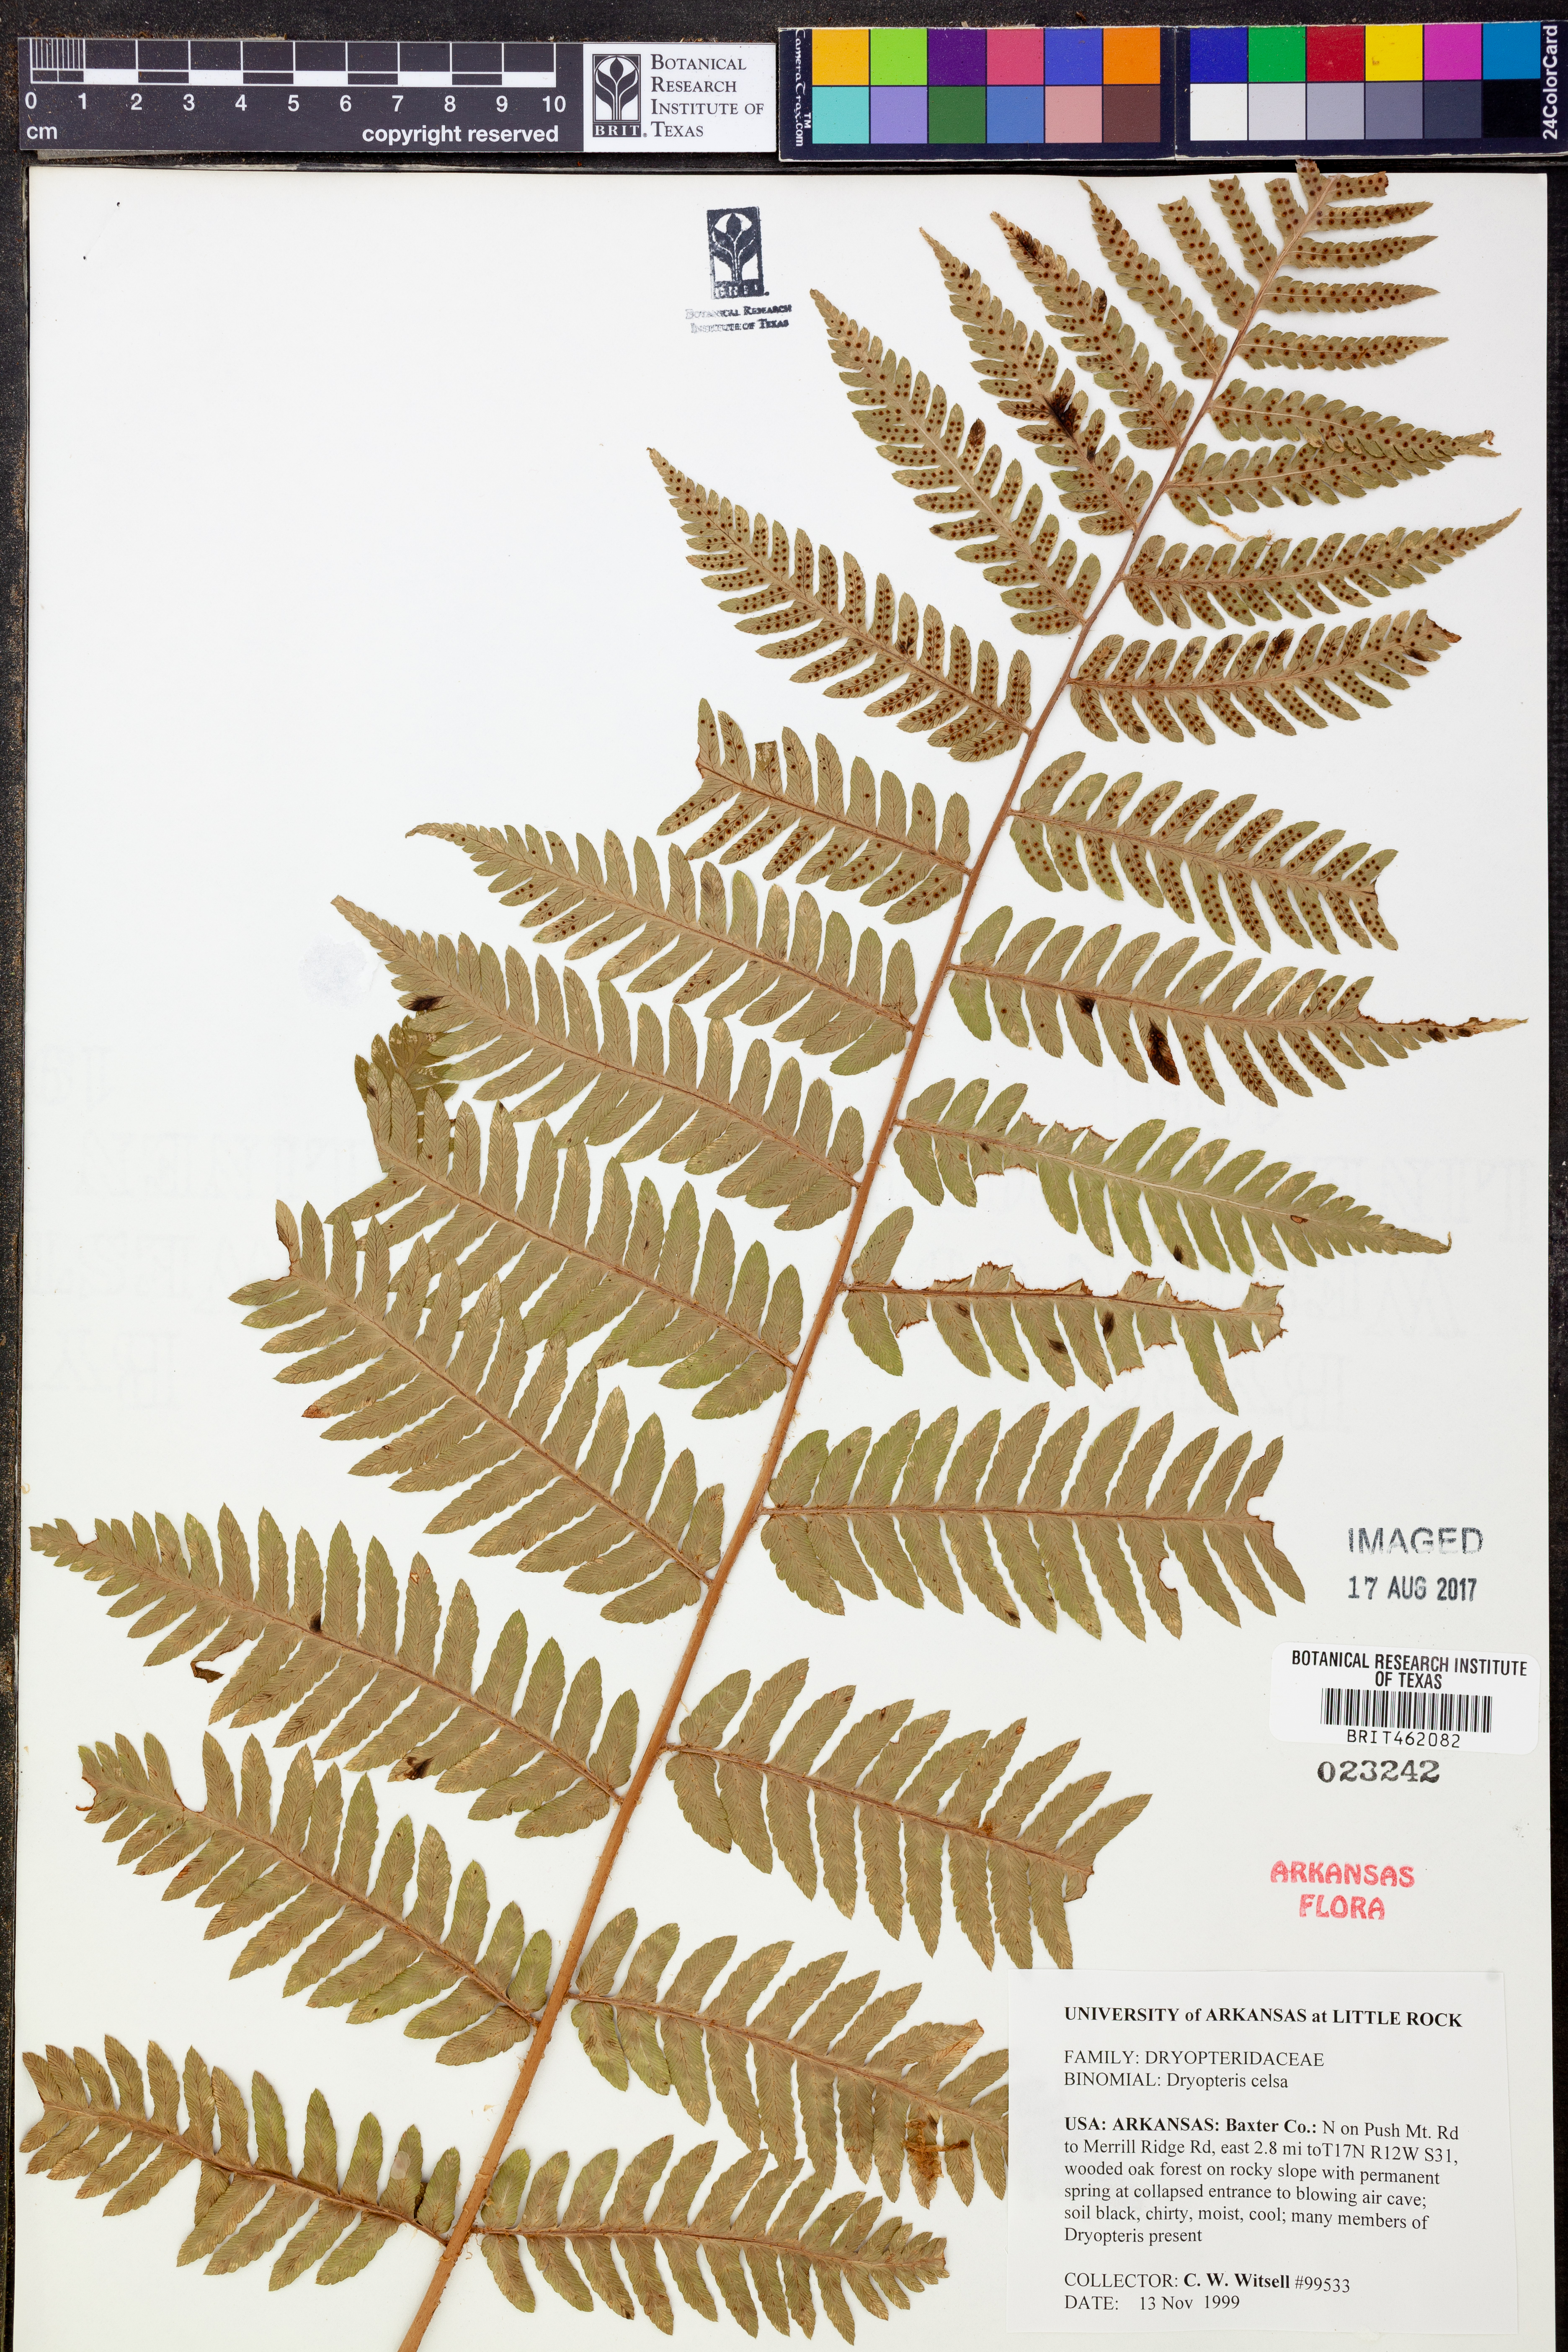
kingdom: Plantae
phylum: Tracheophyta
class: Polypodiopsida
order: Polypodiales
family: Dryopteridaceae
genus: Dryopteris
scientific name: Dryopteris celsa
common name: Log fern
